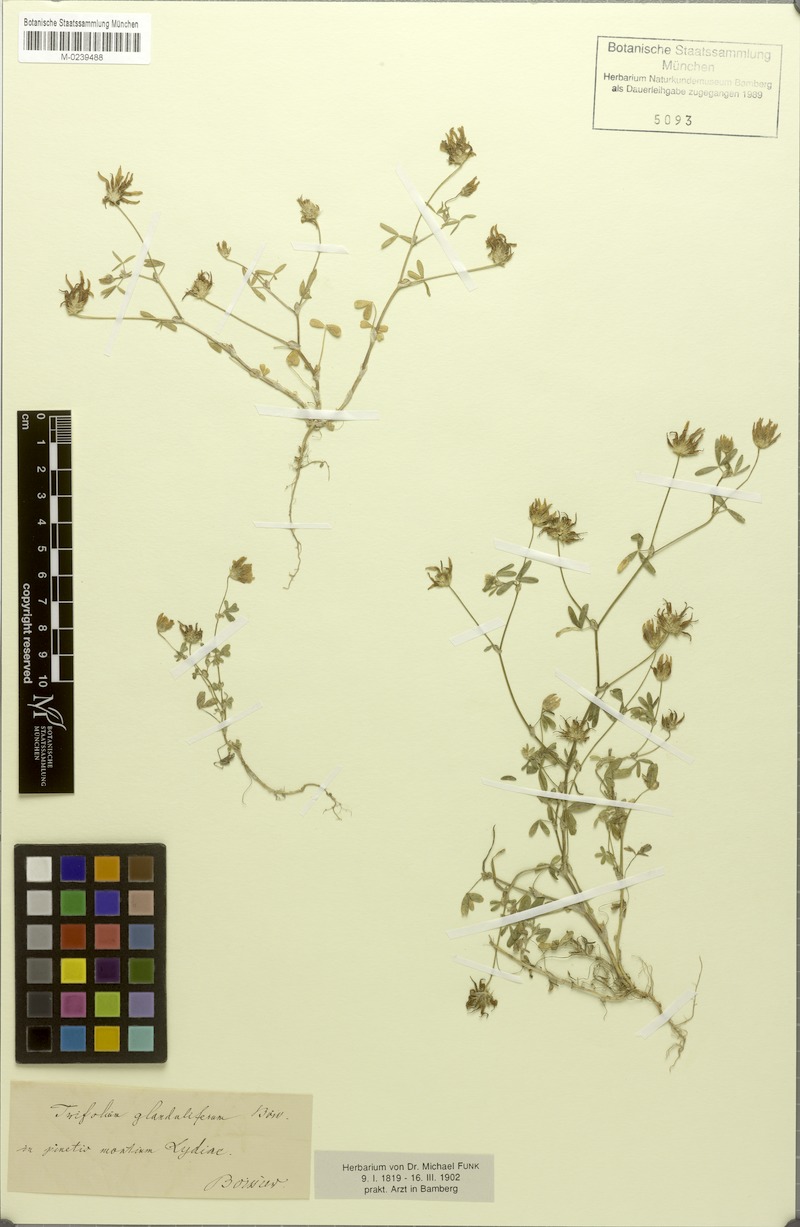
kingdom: Plantae
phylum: Tracheophyta
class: Magnoliopsida
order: Fabales
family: Fabaceae
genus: Trifolium
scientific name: Trifolium glanduliferum
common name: Glandular clover
